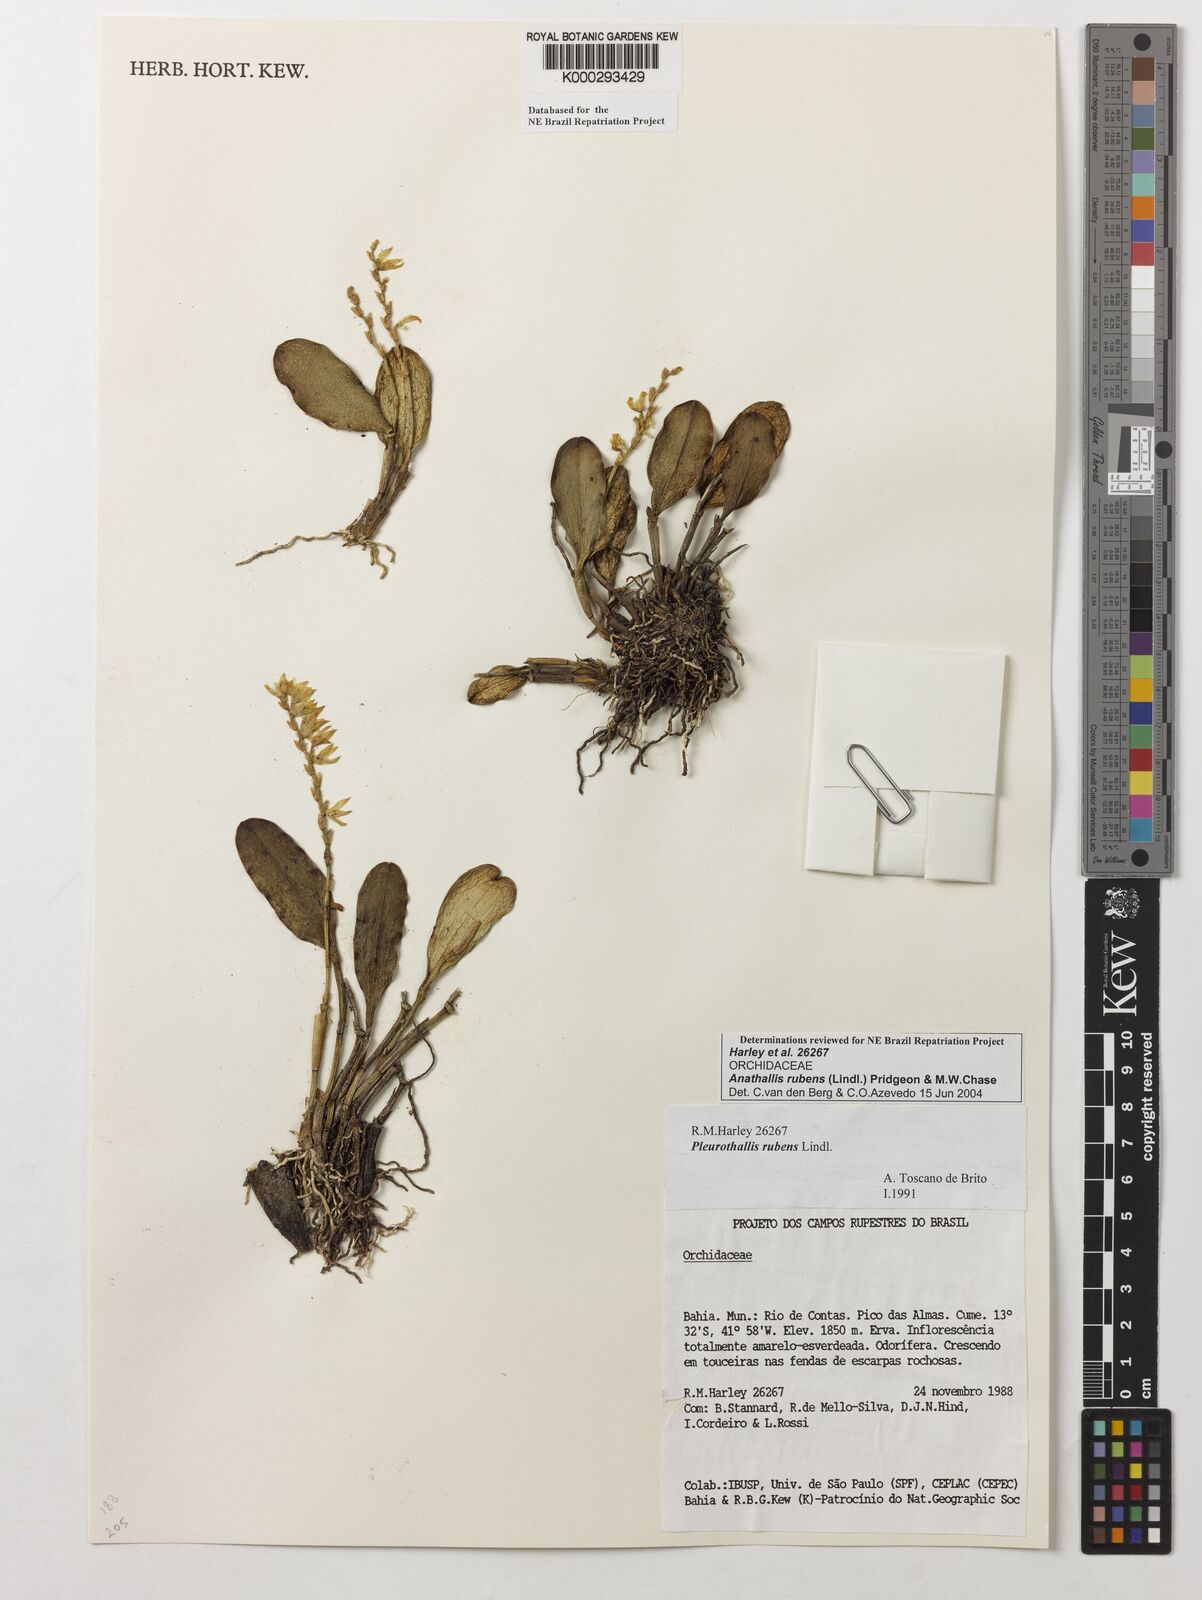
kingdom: Plantae
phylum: Tracheophyta
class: Liliopsida
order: Asparagales
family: Orchidaceae
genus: Stelis
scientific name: Stelis montserratii
